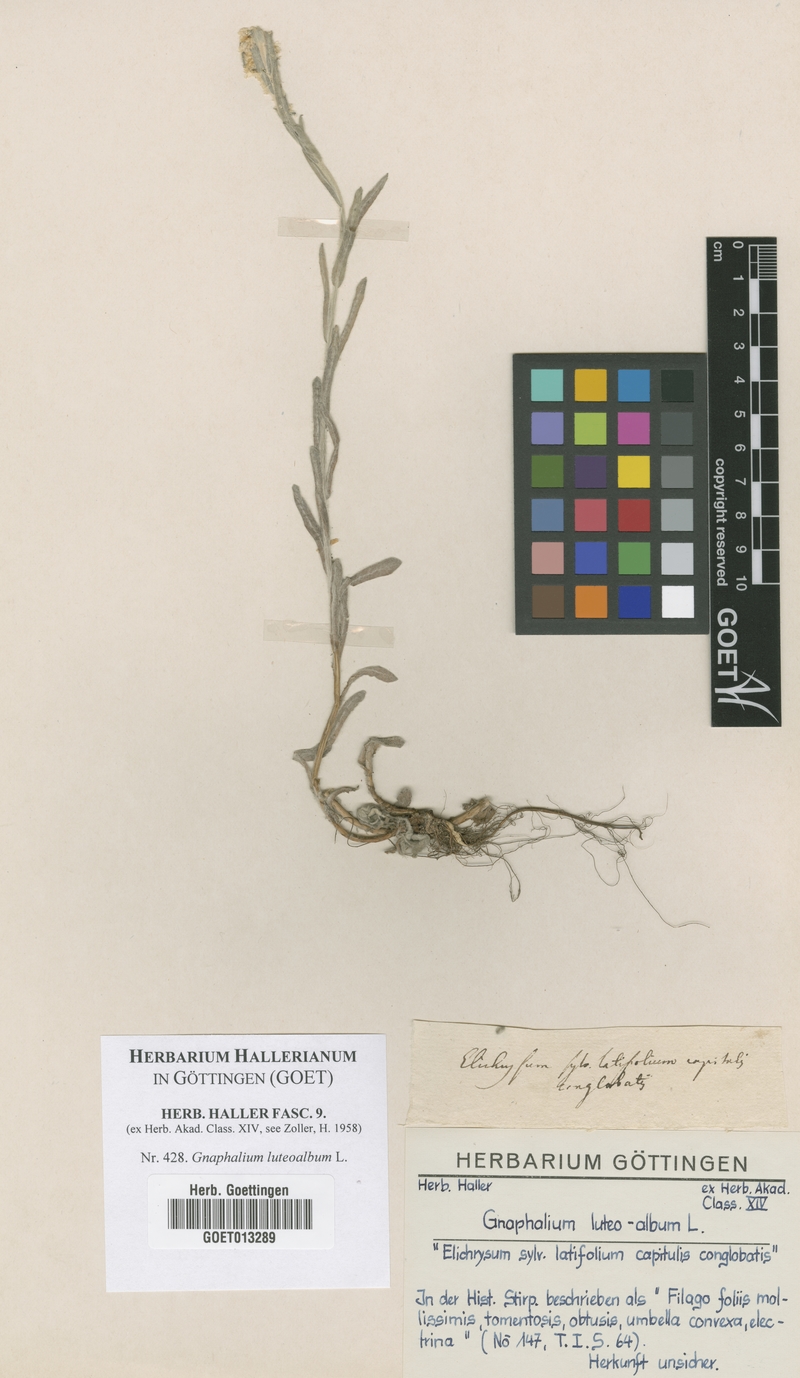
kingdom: Plantae
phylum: Tracheophyta
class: Magnoliopsida
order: Asterales
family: Asteraceae
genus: Helichrysum
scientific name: Helichrysum luteoalbum
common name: Daisy
